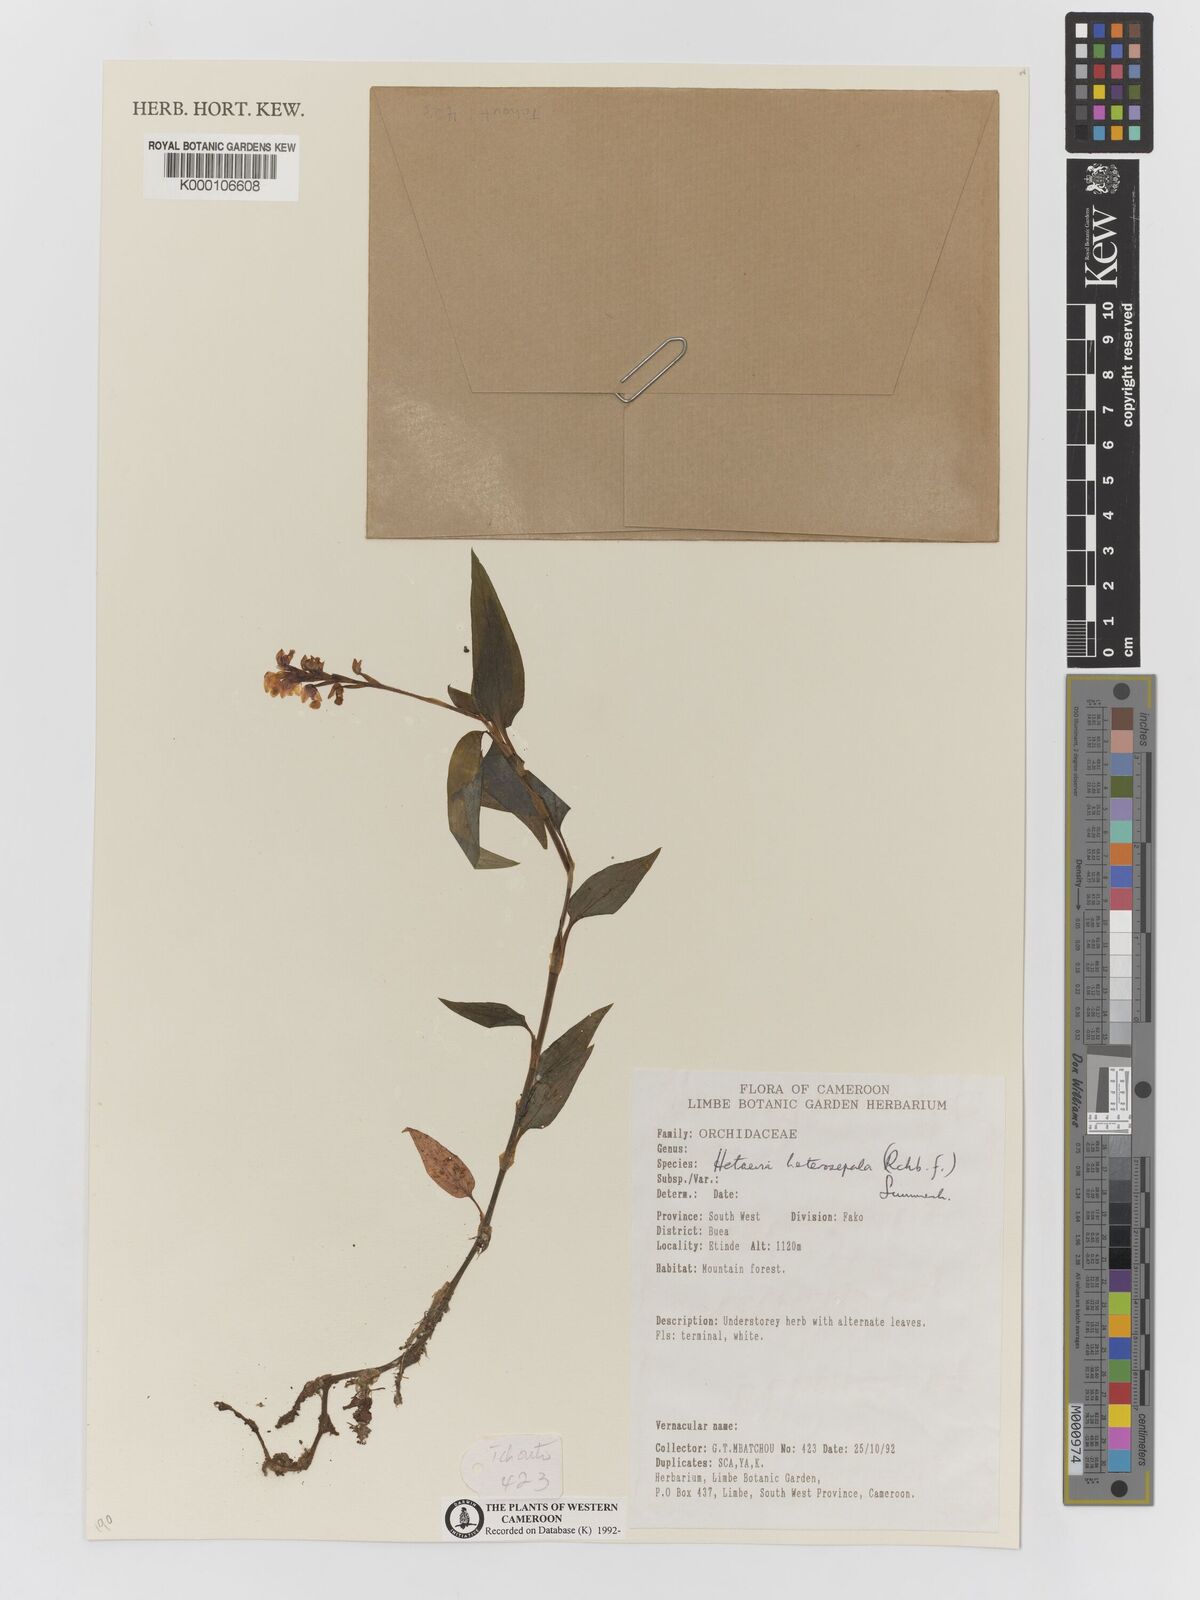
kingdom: Plantae
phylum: Tracheophyta
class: Liliopsida
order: Asparagales
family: Orchidaceae
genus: Hetaeria
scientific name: Hetaeria heterosepala
